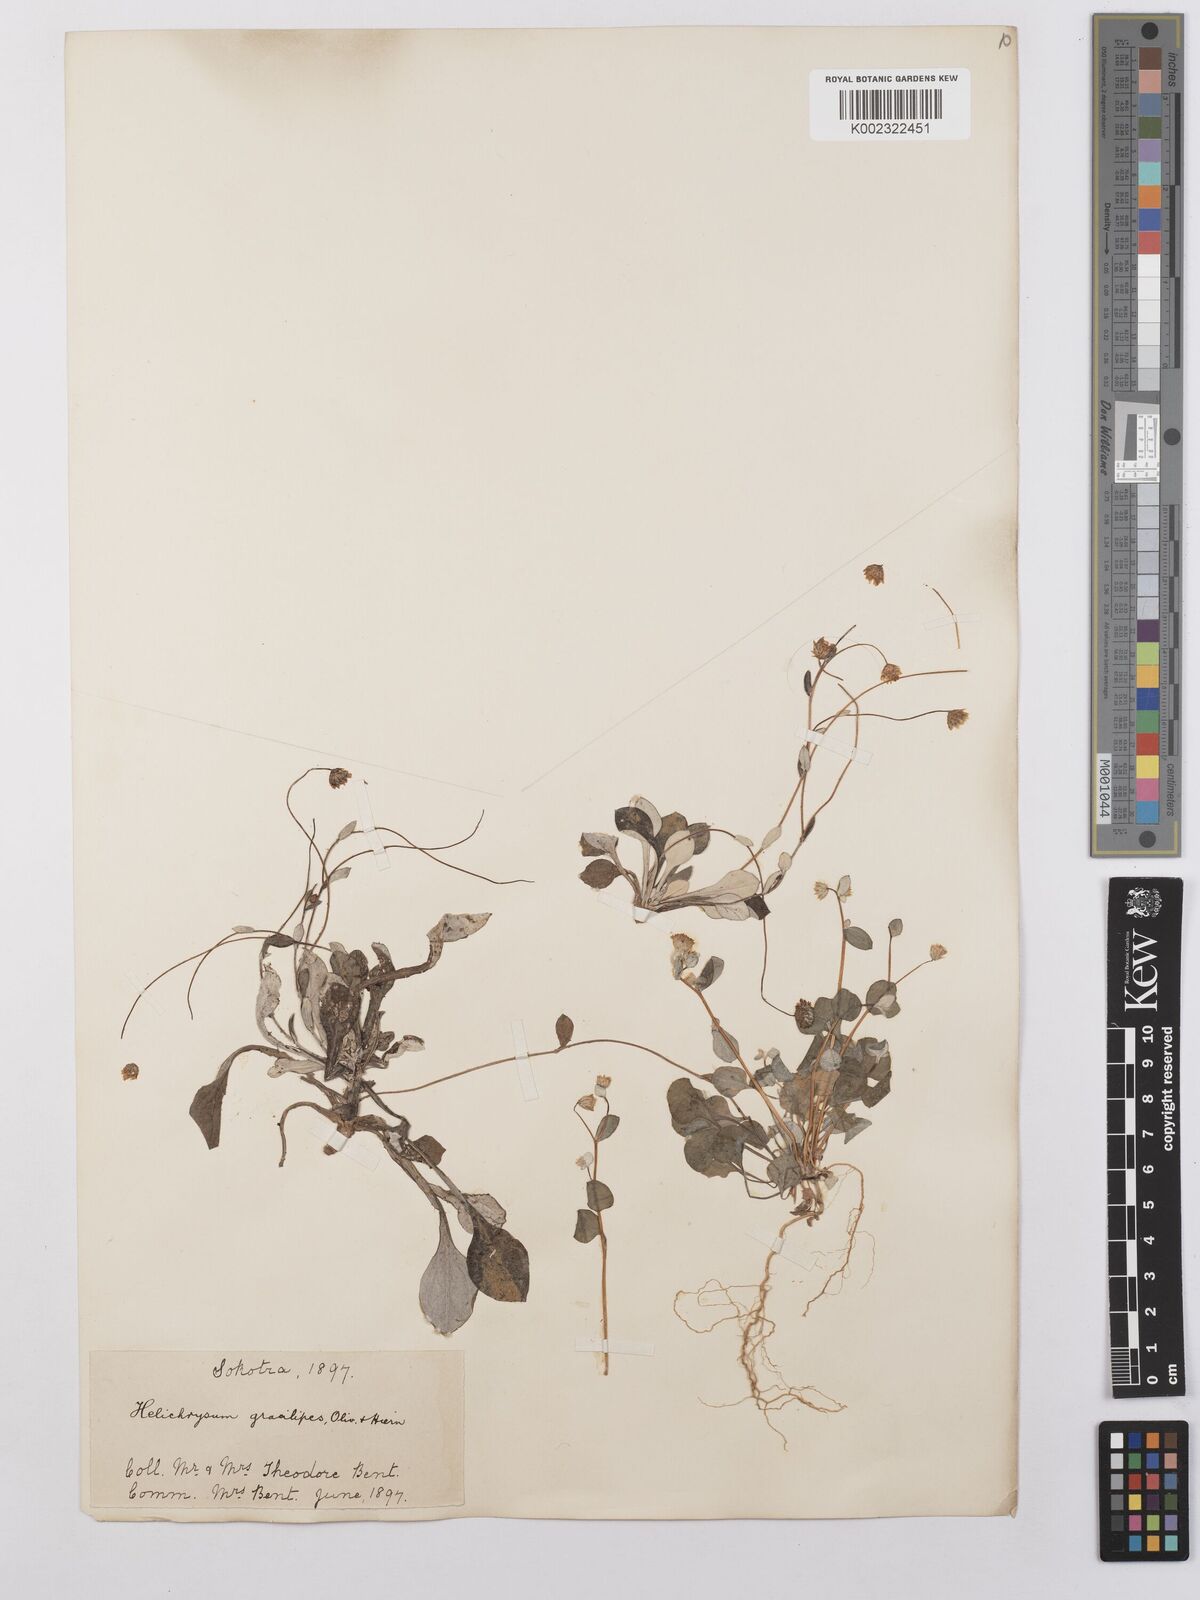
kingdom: Plantae
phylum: Tracheophyta
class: Magnoliopsida
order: Asterales
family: Asteraceae
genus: Libinhania
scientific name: Libinhania gracilipes
